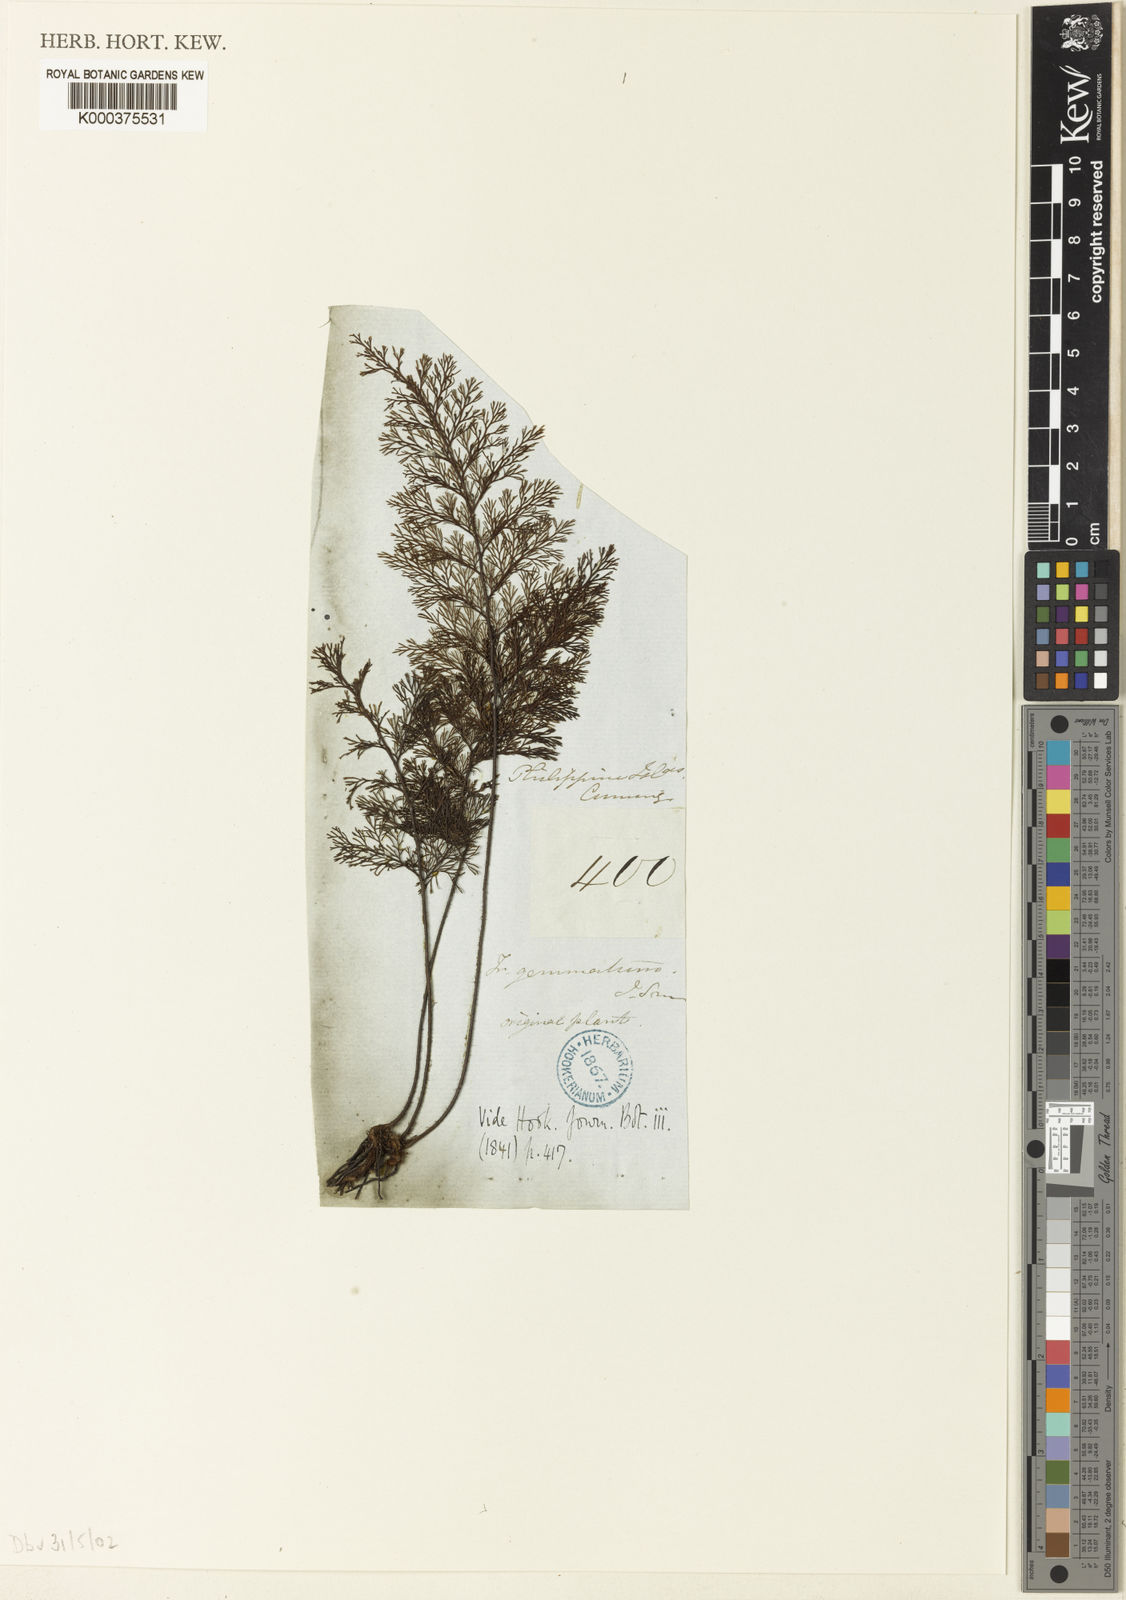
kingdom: Plantae
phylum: Tracheophyta
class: Polypodiopsida
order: Hymenophyllales
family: Hymenophyllaceae
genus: Abrodictyum
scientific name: Abrodictyum idoneum
